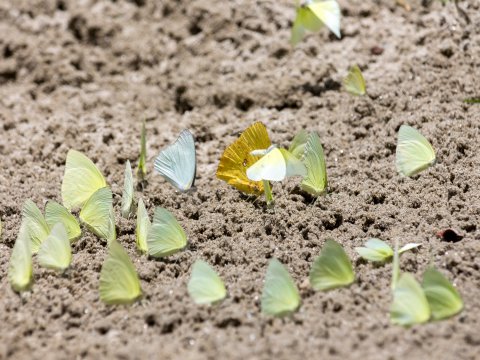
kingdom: Animalia
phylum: Arthropoda
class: Insecta
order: Lepidoptera
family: Pieridae
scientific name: Pieridae
